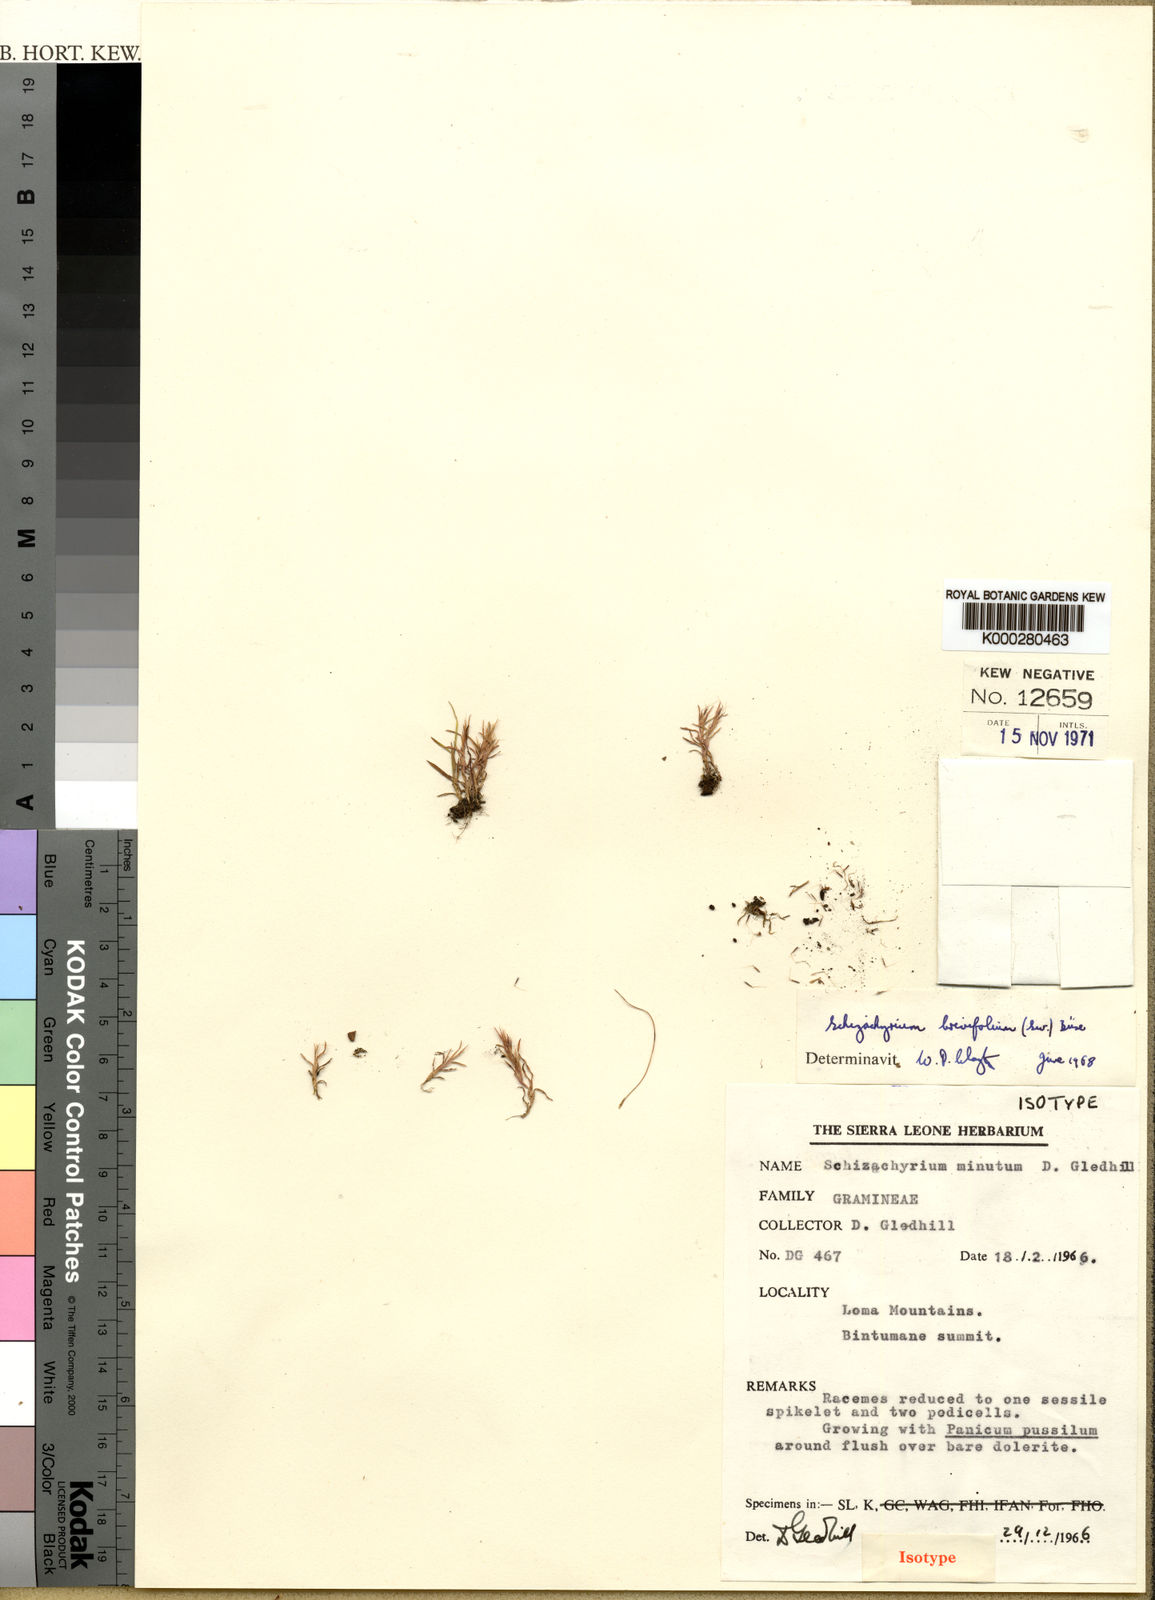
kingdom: Plantae
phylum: Tracheophyta
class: Liliopsida
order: Poales
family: Poaceae
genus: Schizachyrium
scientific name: Schizachyrium brevifolium
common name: Serillo dulce
